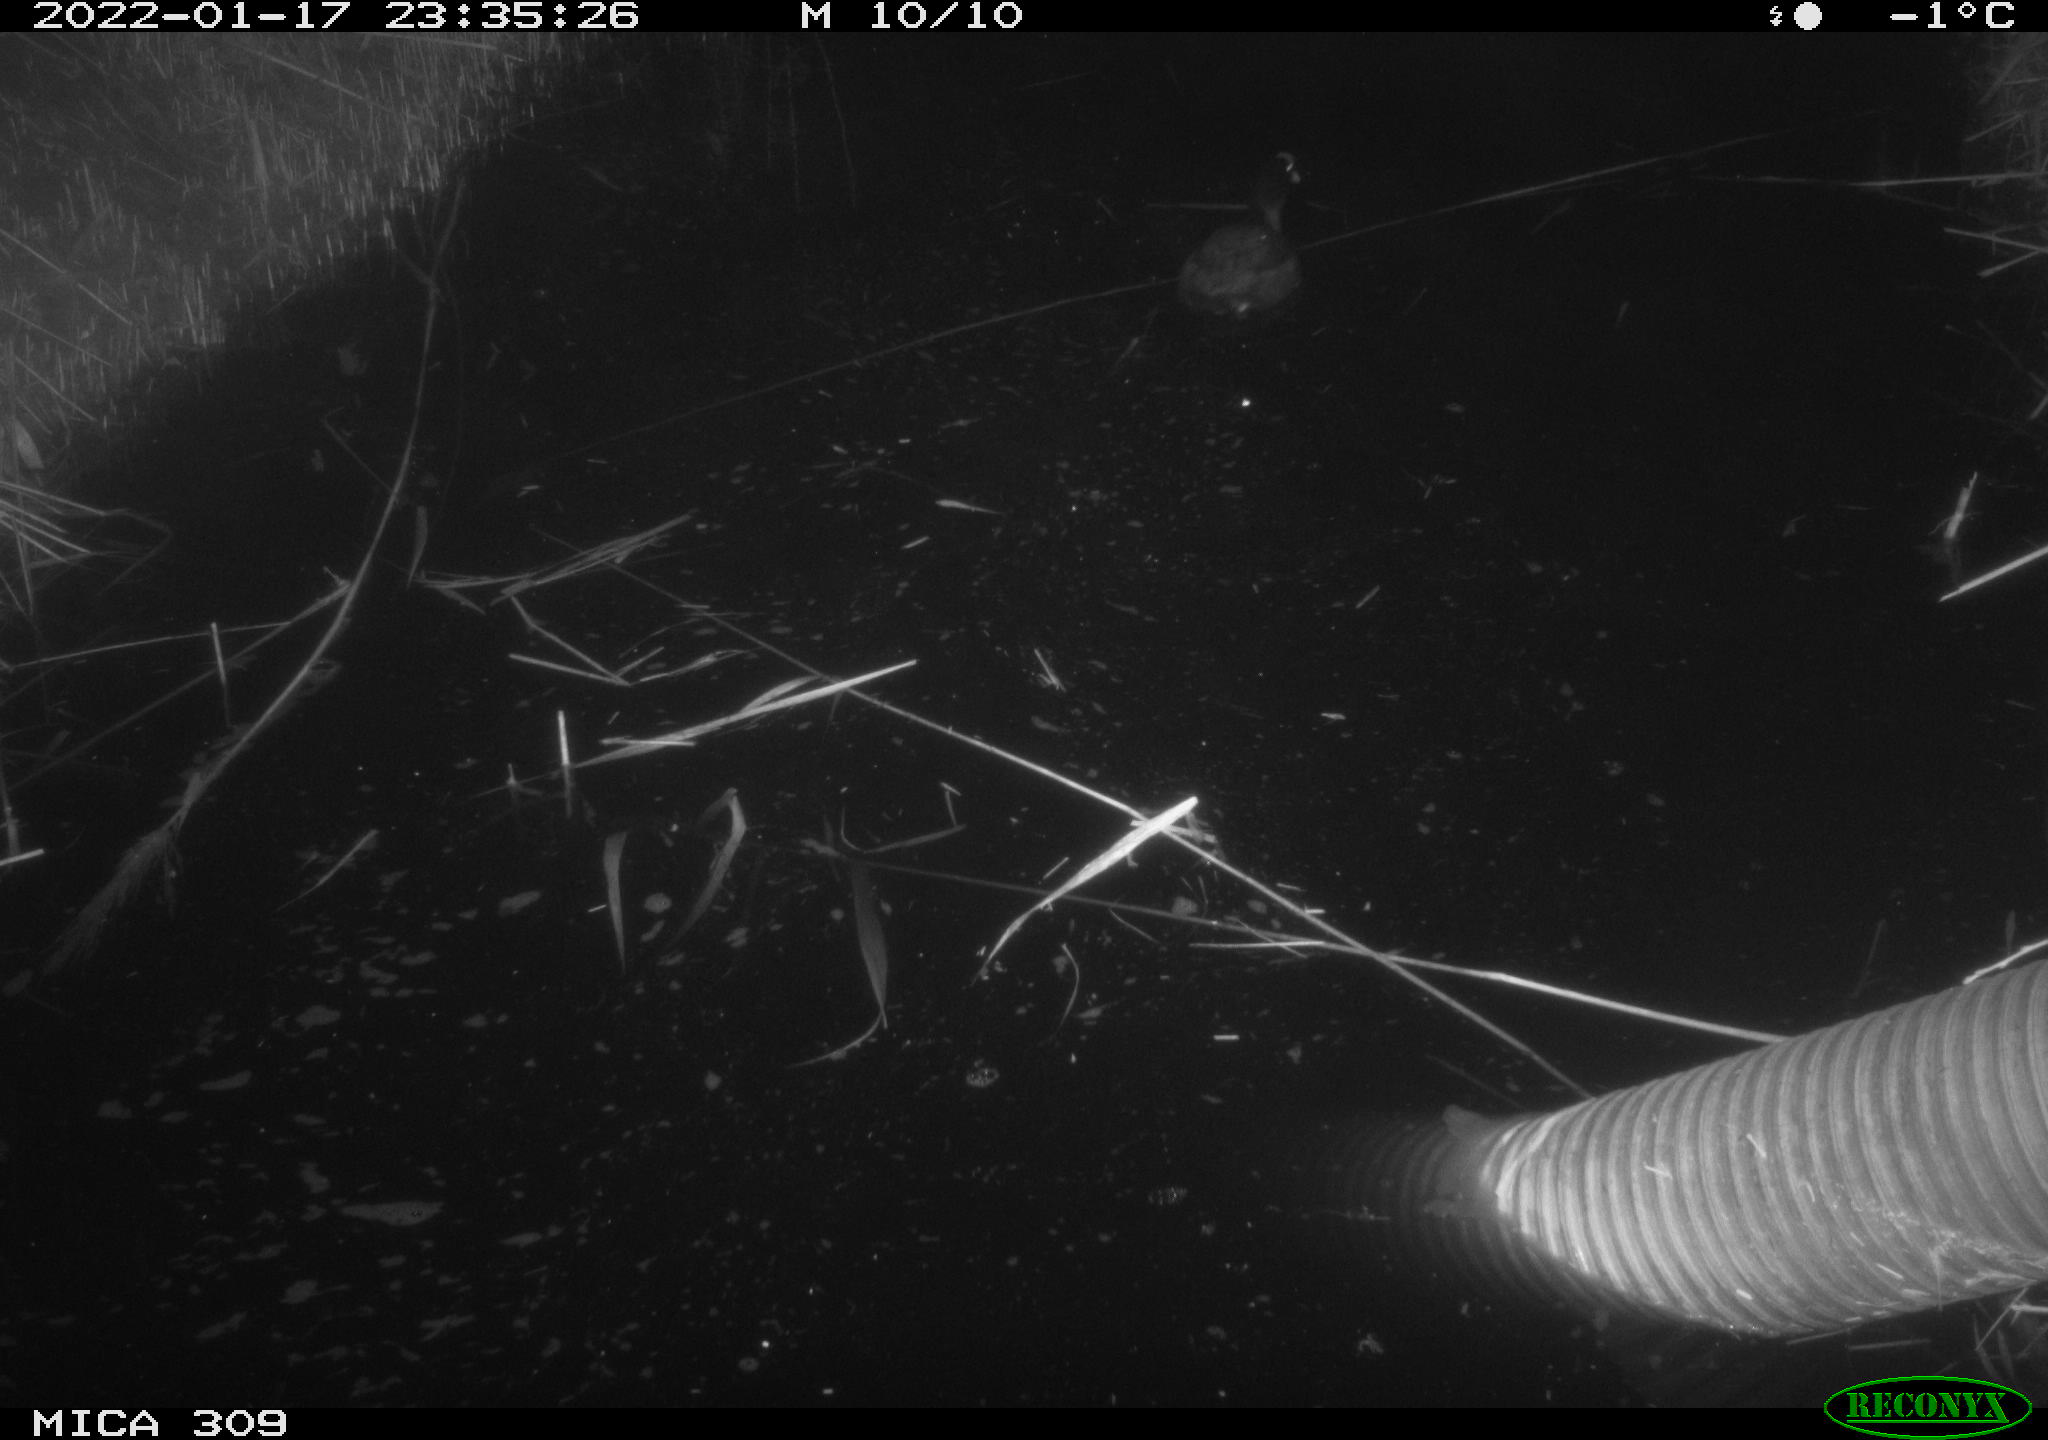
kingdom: Animalia
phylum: Chordata
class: Aves
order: Gruiformes
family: Rallidae
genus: Fulica
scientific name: Fulica atra
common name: Eurasian coot
